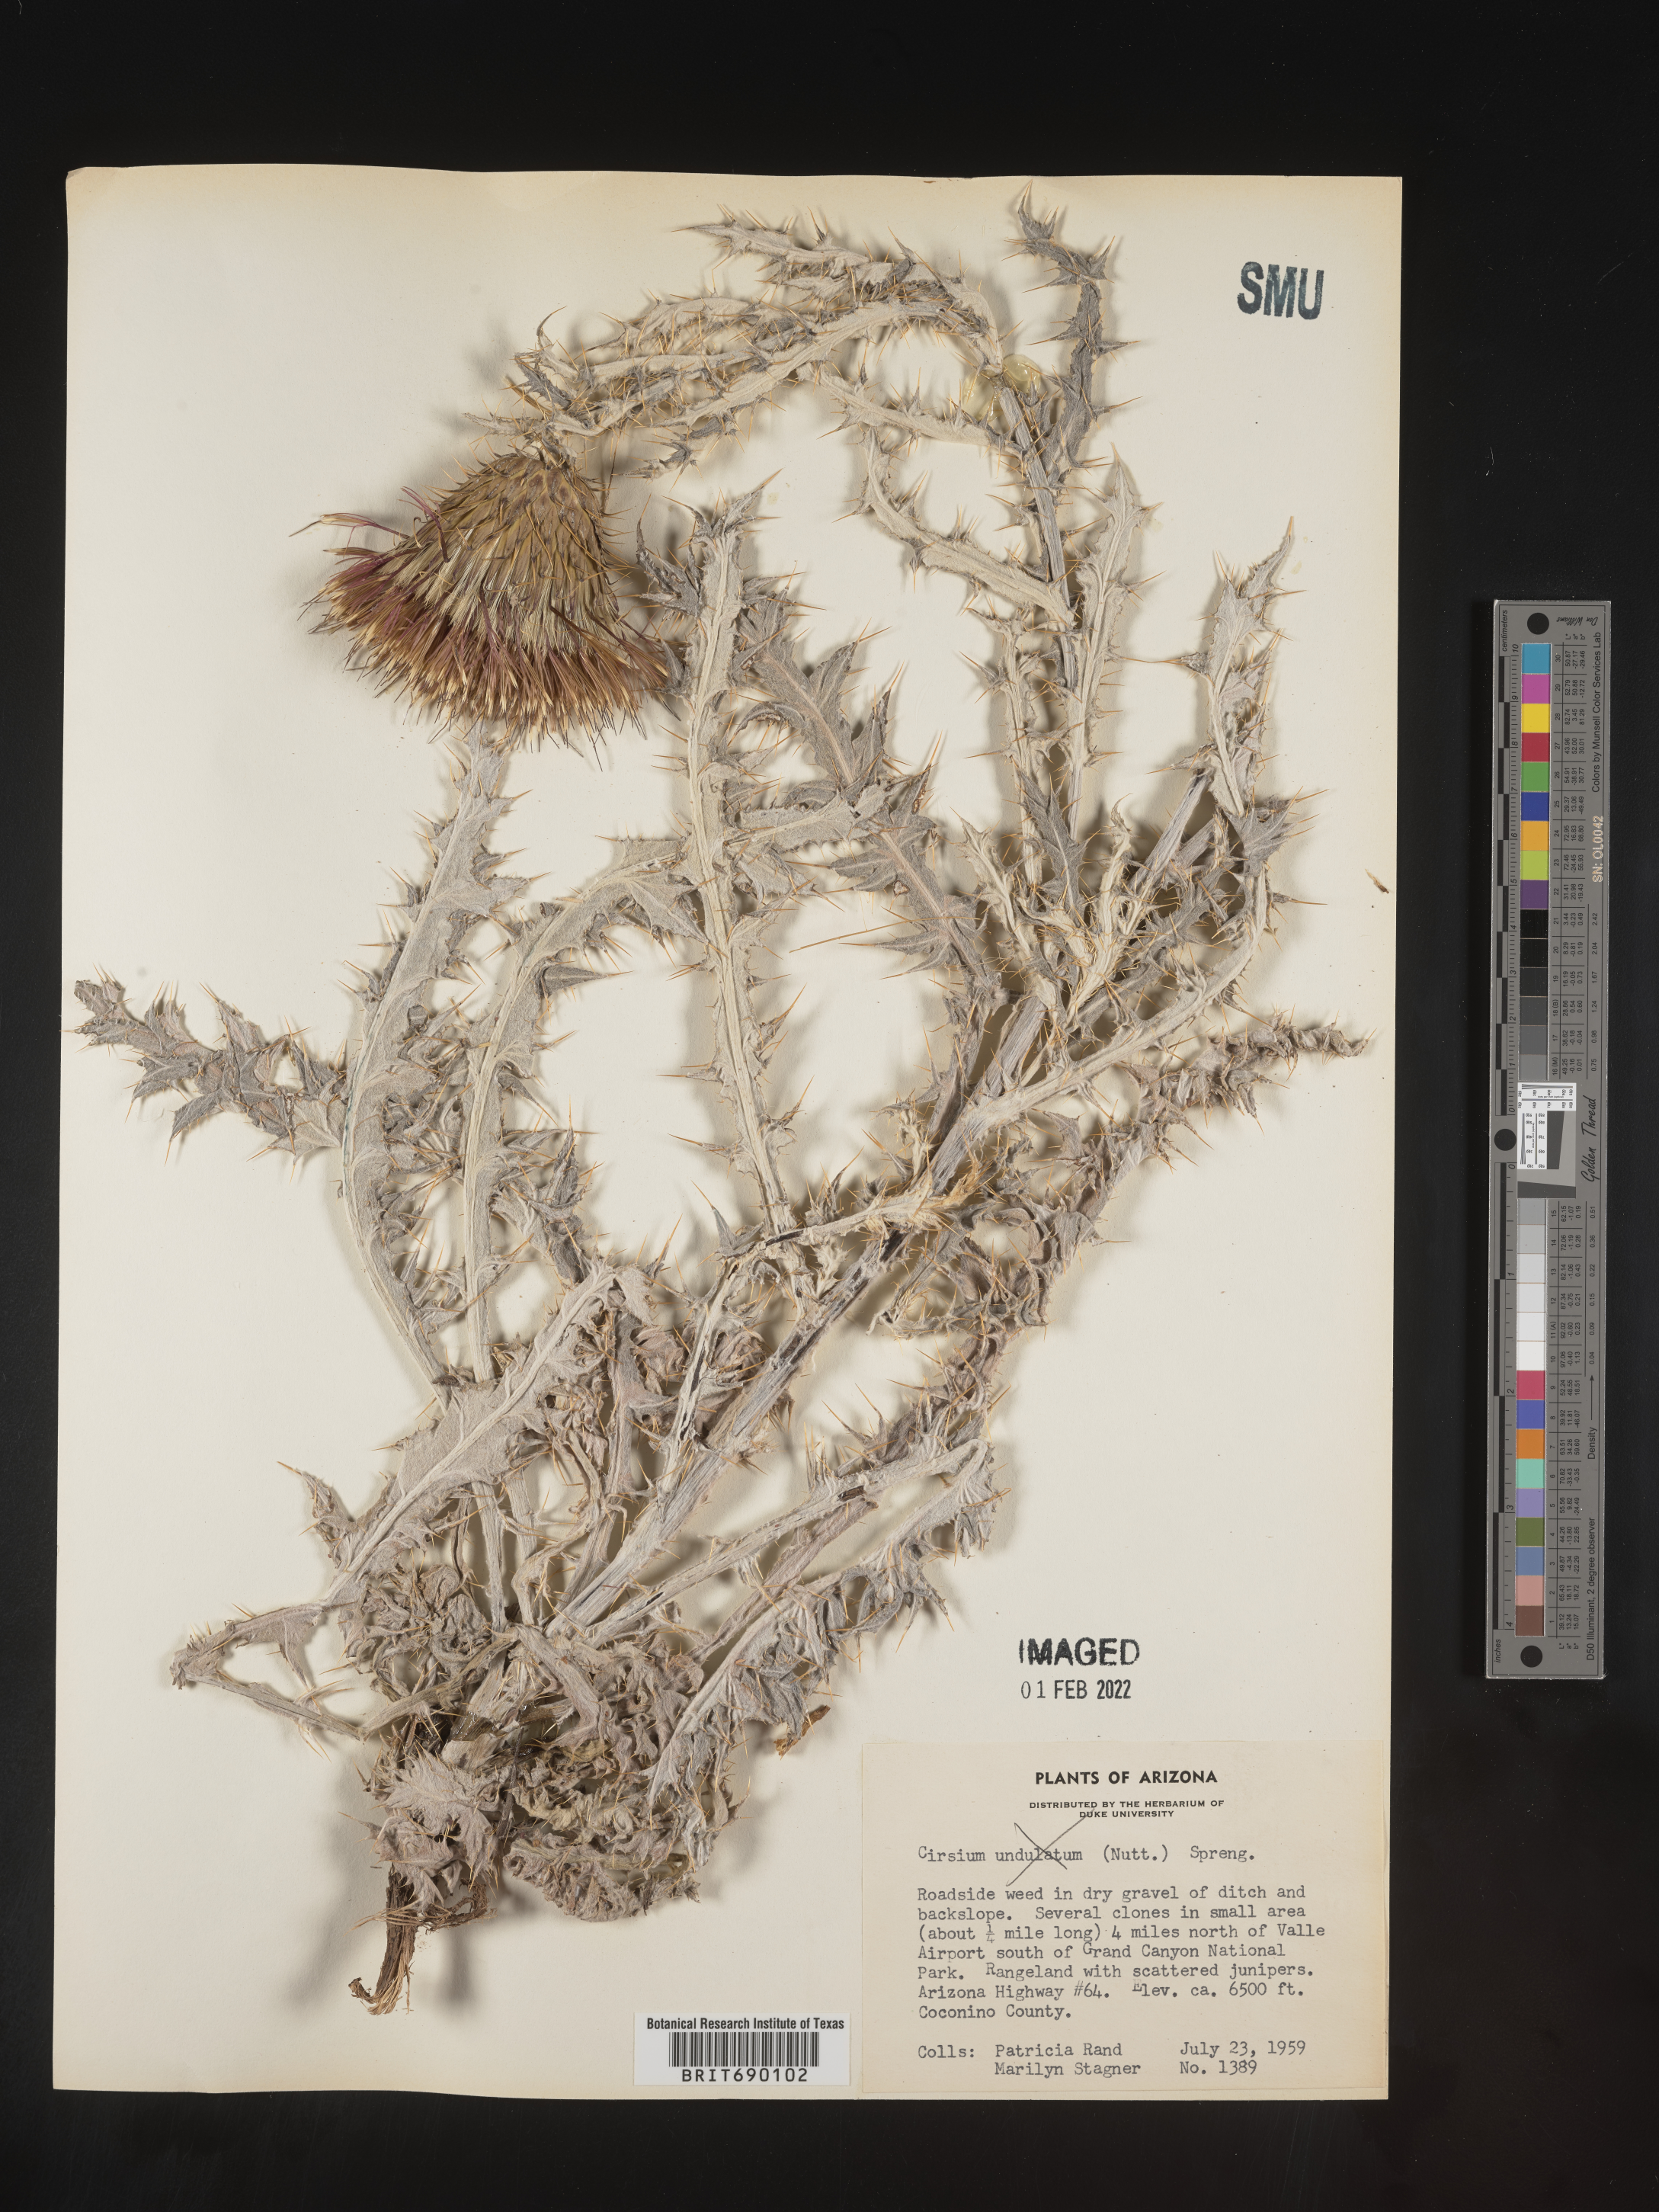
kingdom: Plantae
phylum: Tracheophyta
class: Magnoliopsida
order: Asterales
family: Asteraceae
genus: Cirsium
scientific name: Cirsium
